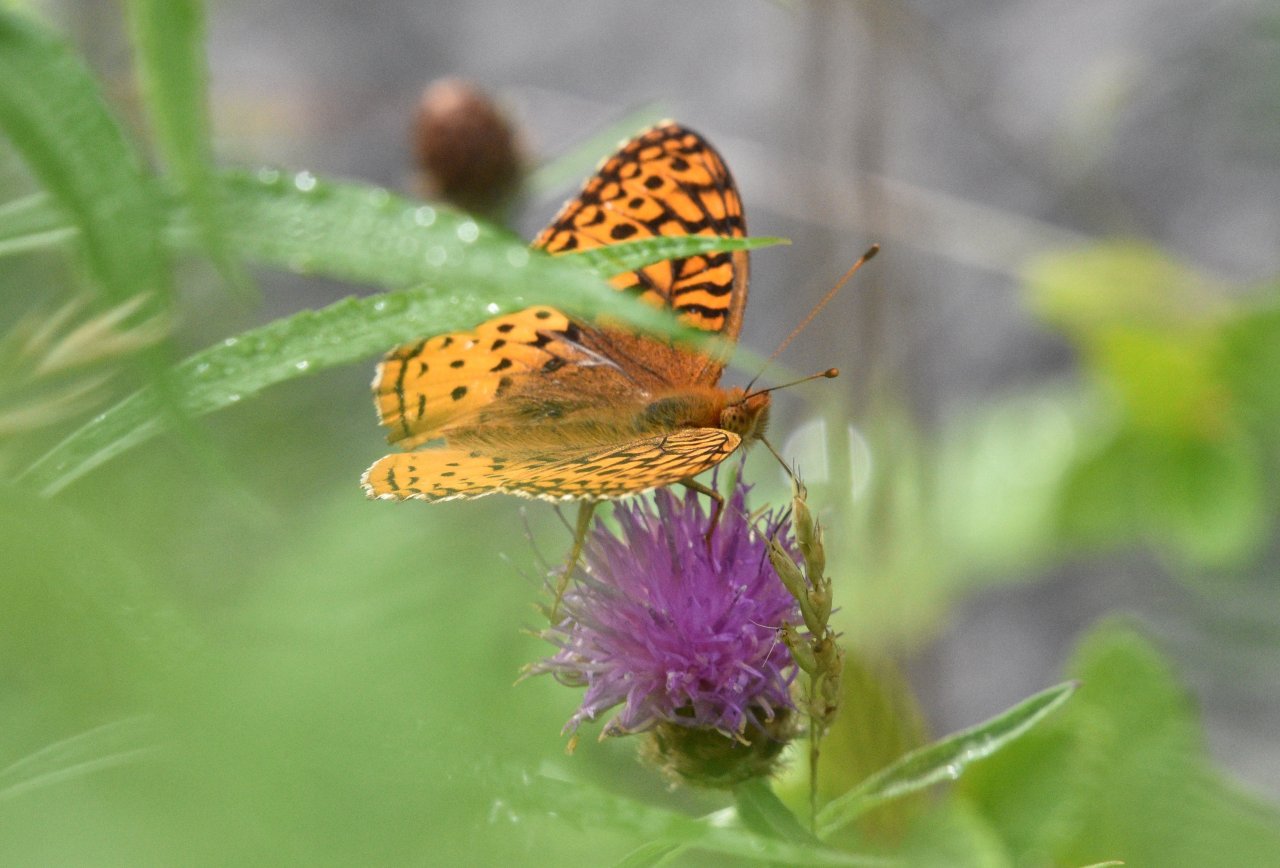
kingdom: Animalia
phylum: Arthropoda
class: Insecta
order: Lepidoptera
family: Nymphalidae
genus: Speyeria
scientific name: Speyeria cybele
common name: Great Spangled Fritillary
